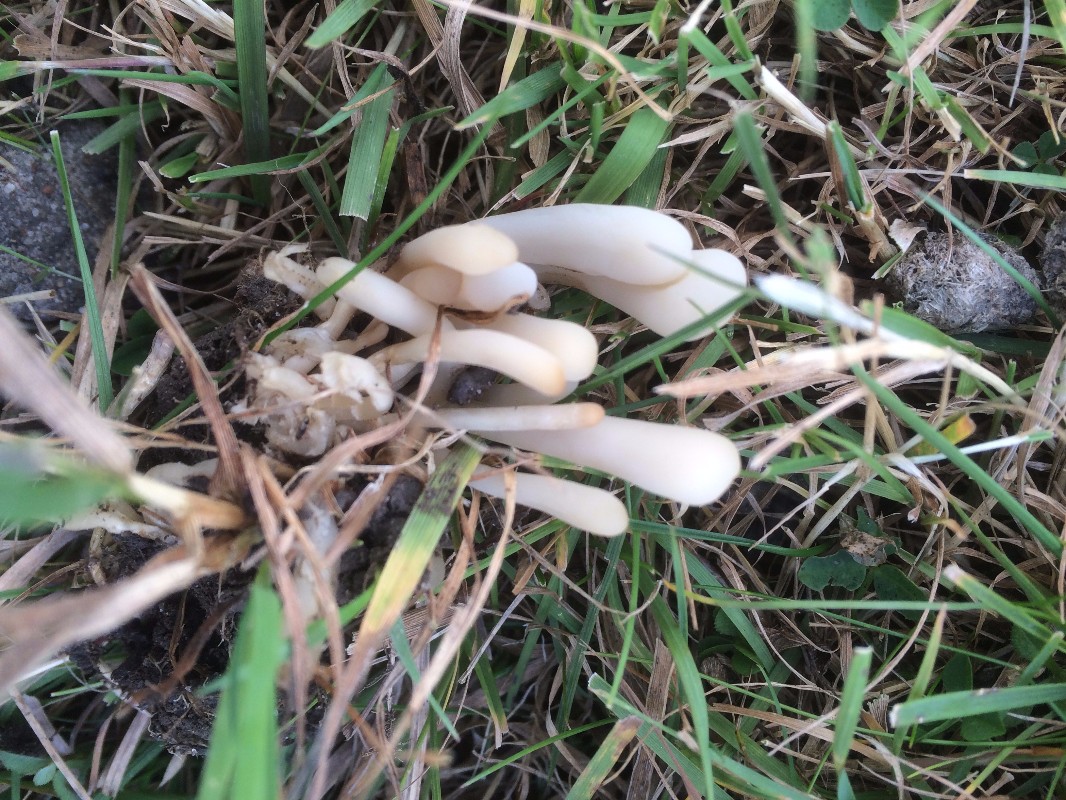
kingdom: Fungi
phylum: Basidiomycota
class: Agaricomycetes
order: Agaricales
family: Clavariaceae
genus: Clavaria
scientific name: Clavaria falcata
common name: hvid køllesvamp
